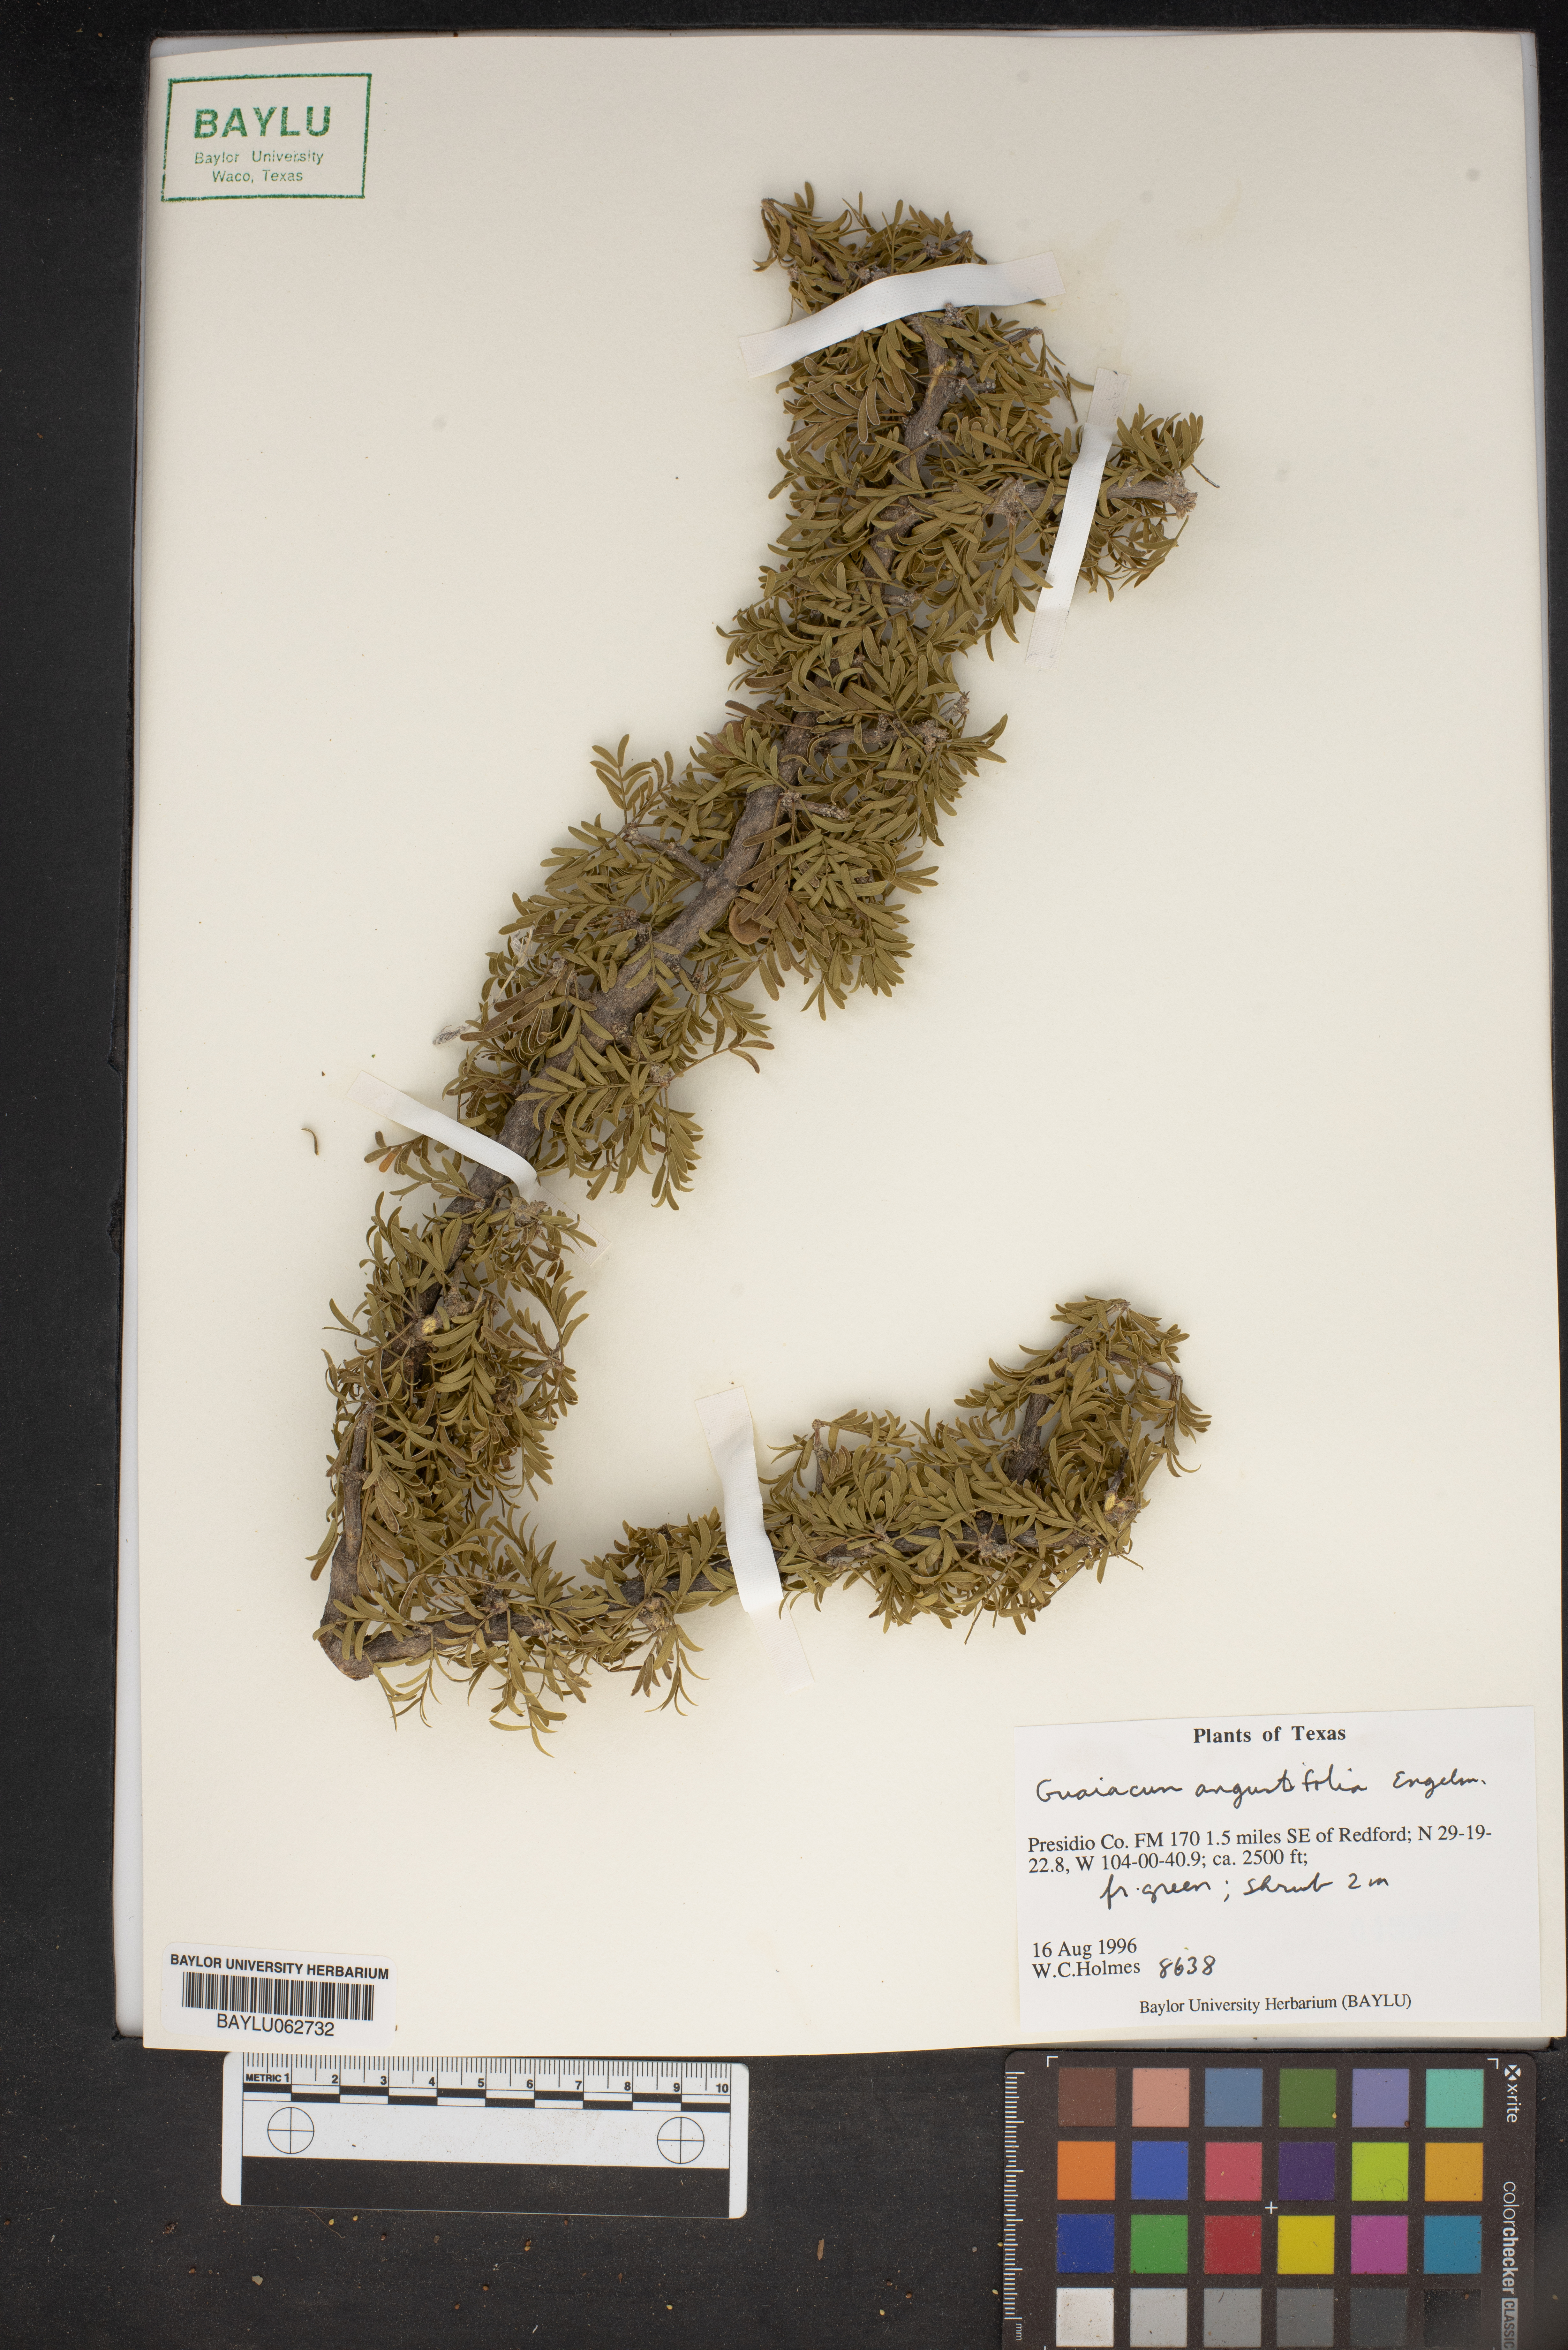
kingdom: Plantae
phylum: Tracheophyta
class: Magnoliopsida
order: Zygophyllales
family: Zygophyllaceae
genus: Porlieria
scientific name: Porlieria angustifolia
